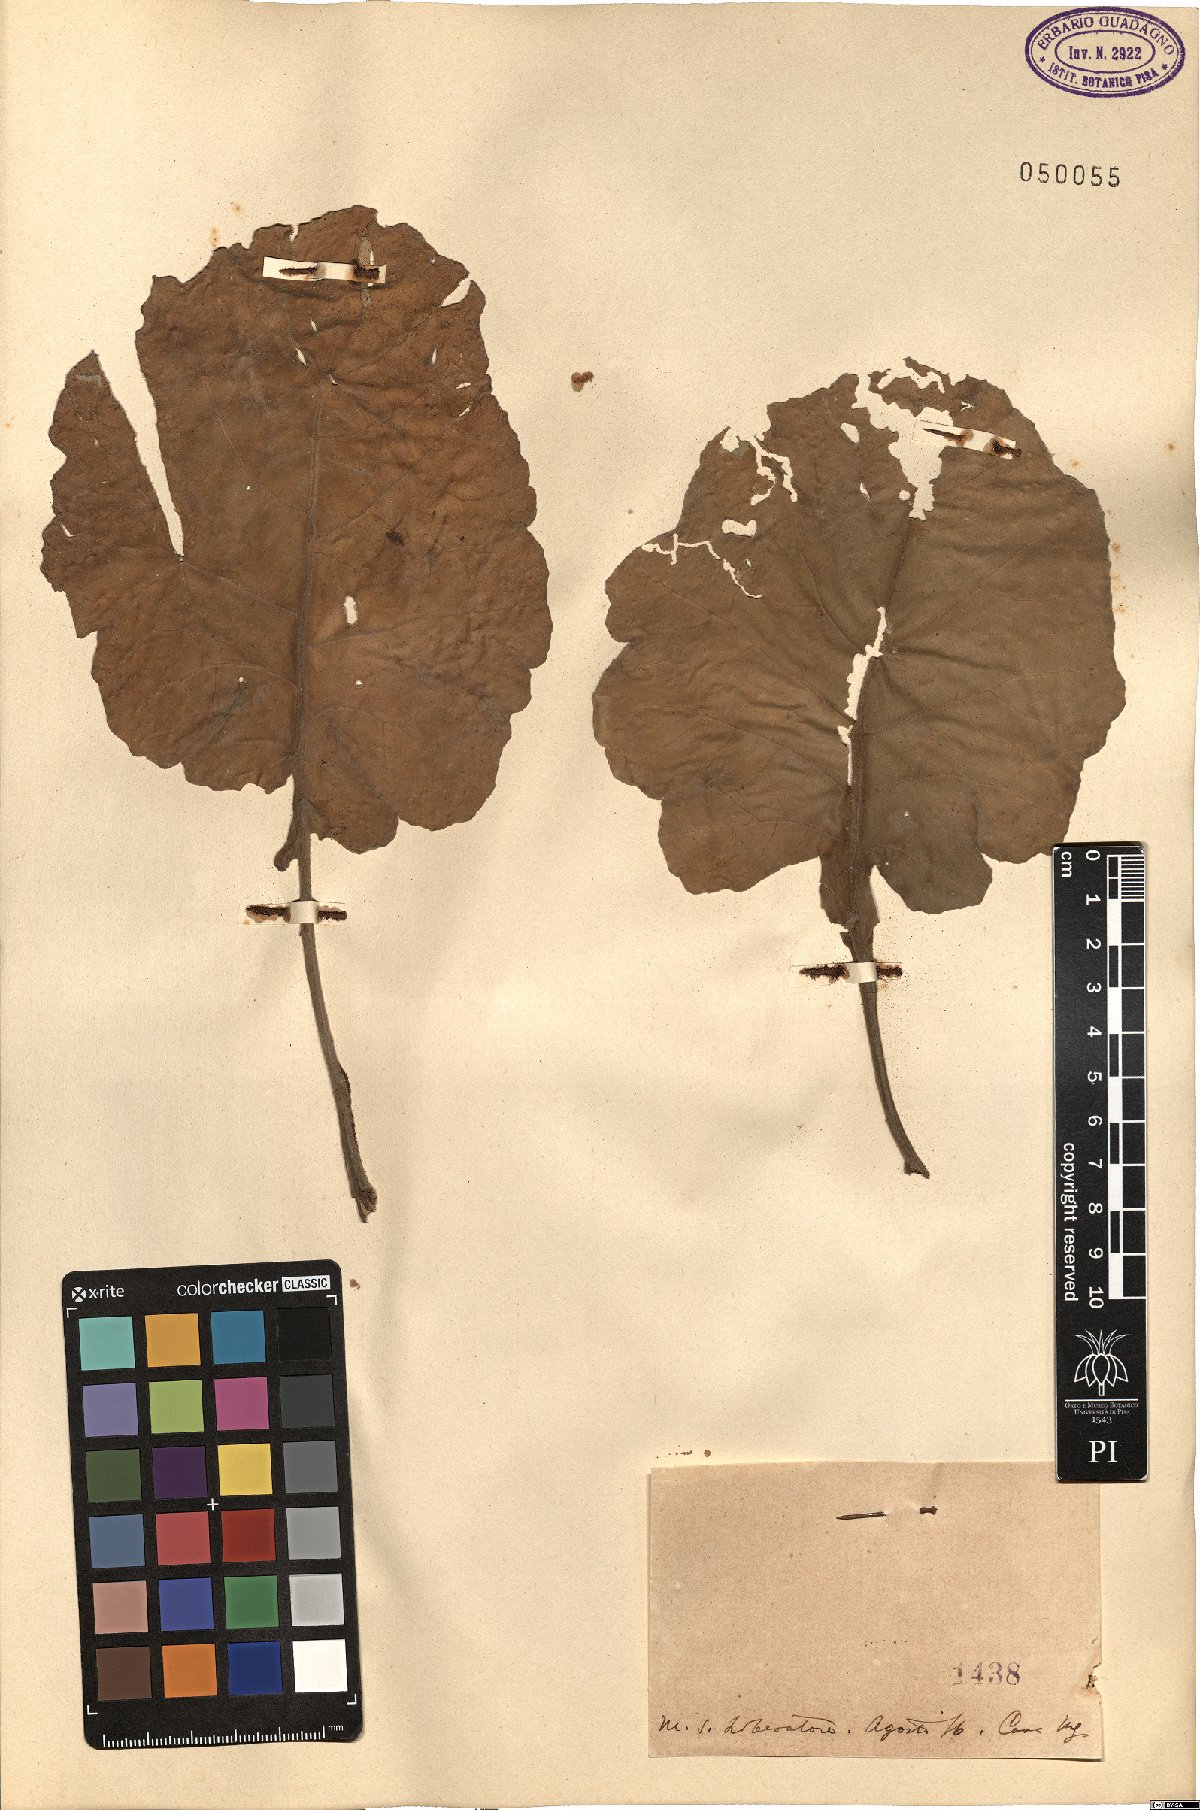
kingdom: Plantae
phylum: Tracheophyta
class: Magnoliopsida
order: Brassicales
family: Brassicaceae
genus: Brassica
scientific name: Brassica
